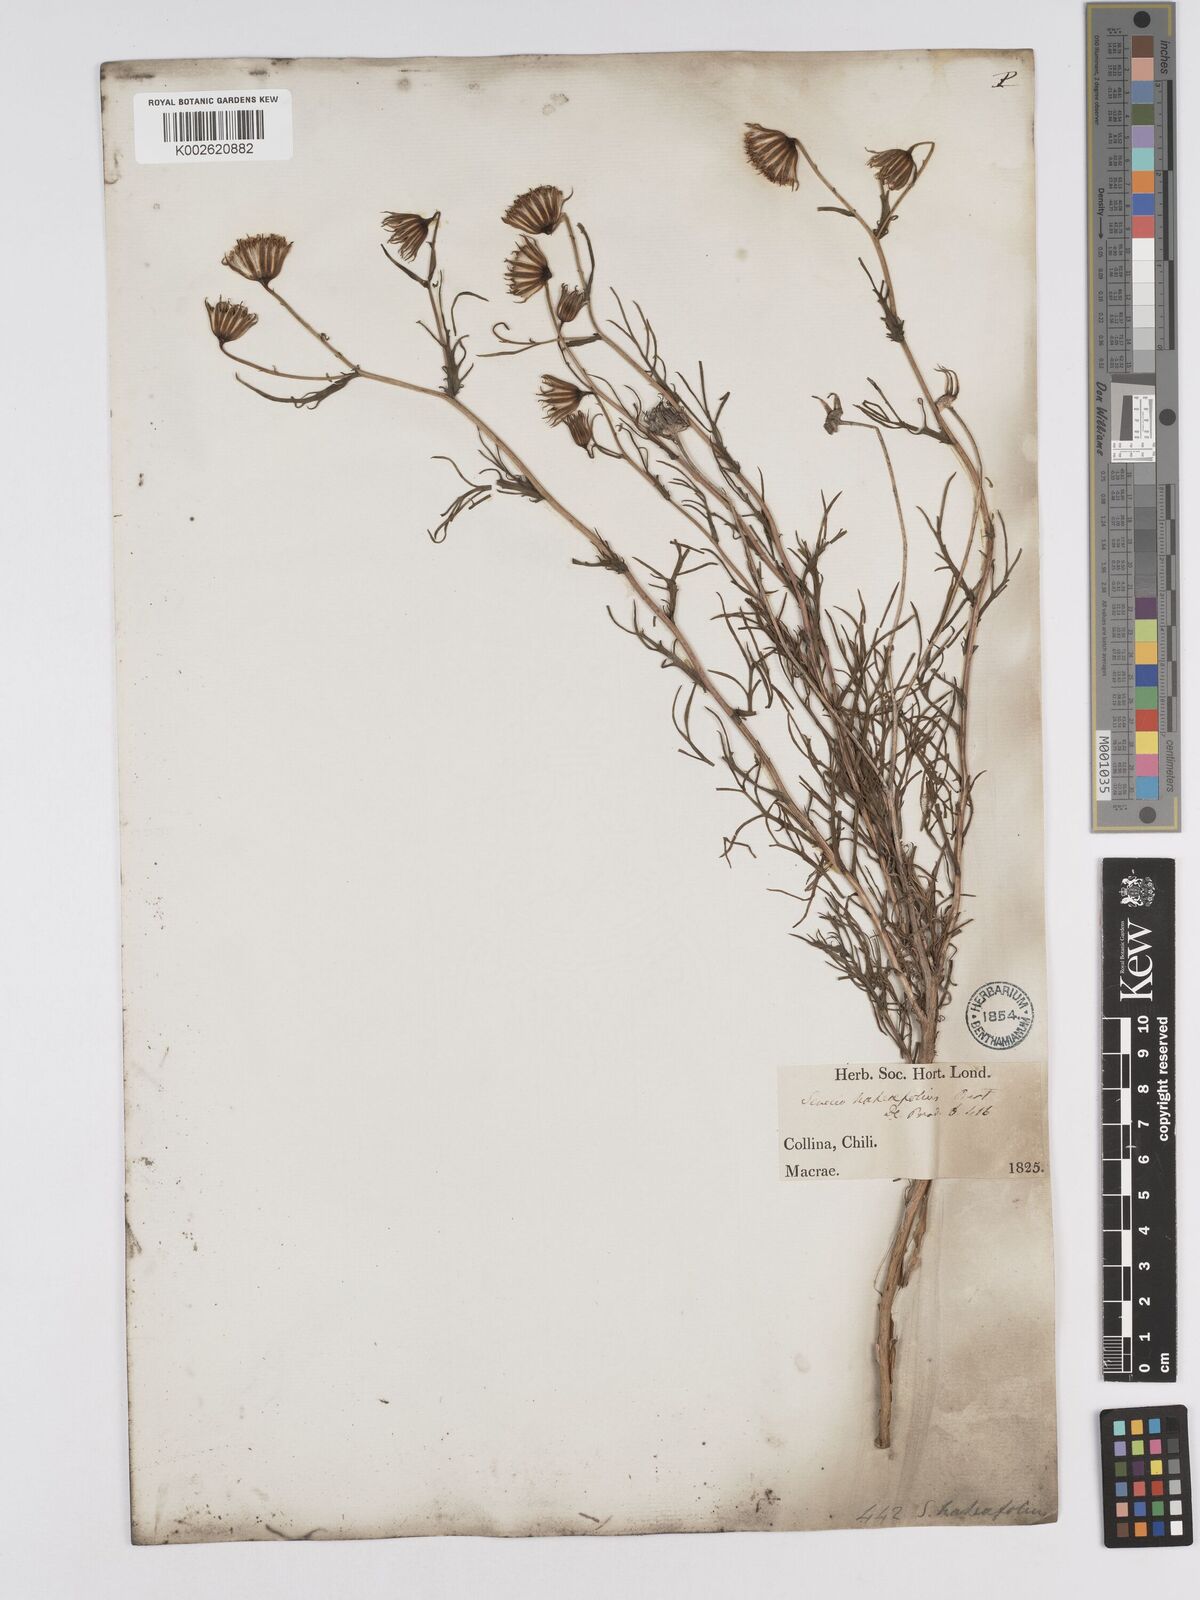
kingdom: Plantae
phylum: Tracheophyta
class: Magnoliopsida
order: Asterales
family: Asteraceae
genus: Senecio
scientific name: Senecio hakeifolius
